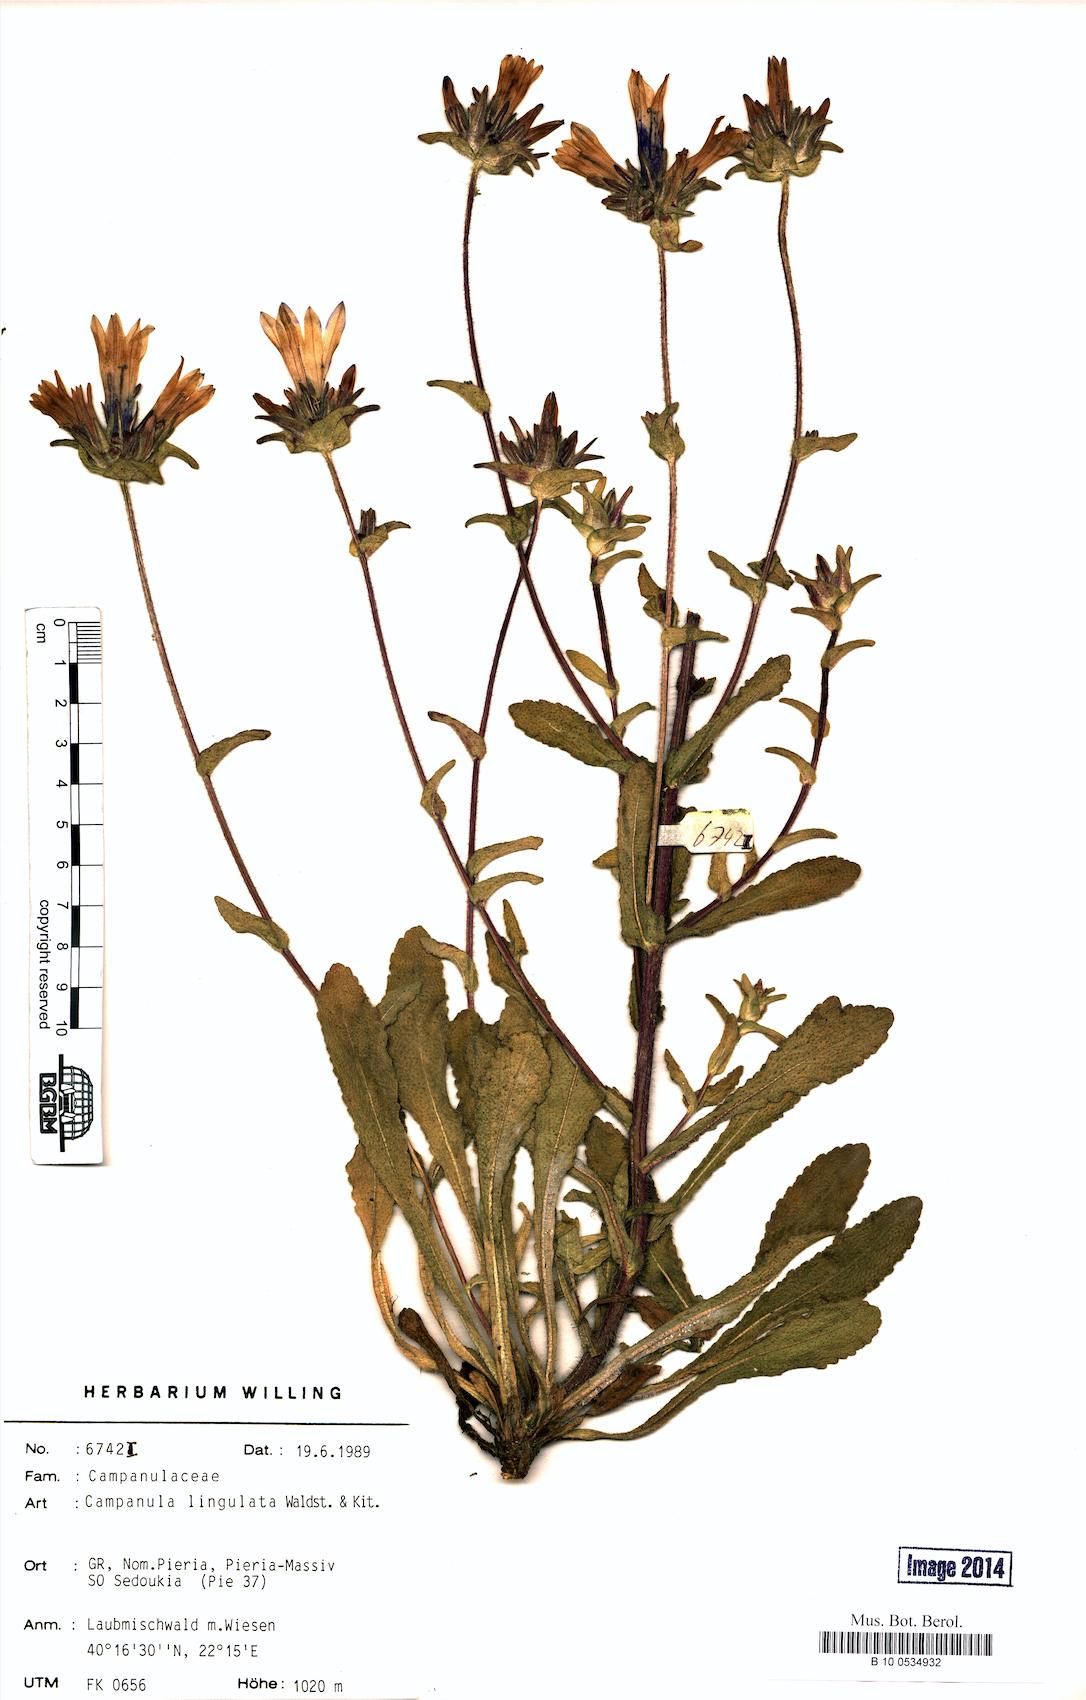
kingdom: Plantae
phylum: Tracheophyta
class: Magnoliopsida
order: Asterales
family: Campanulaceae
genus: Campanula
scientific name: Campanula lingulata
